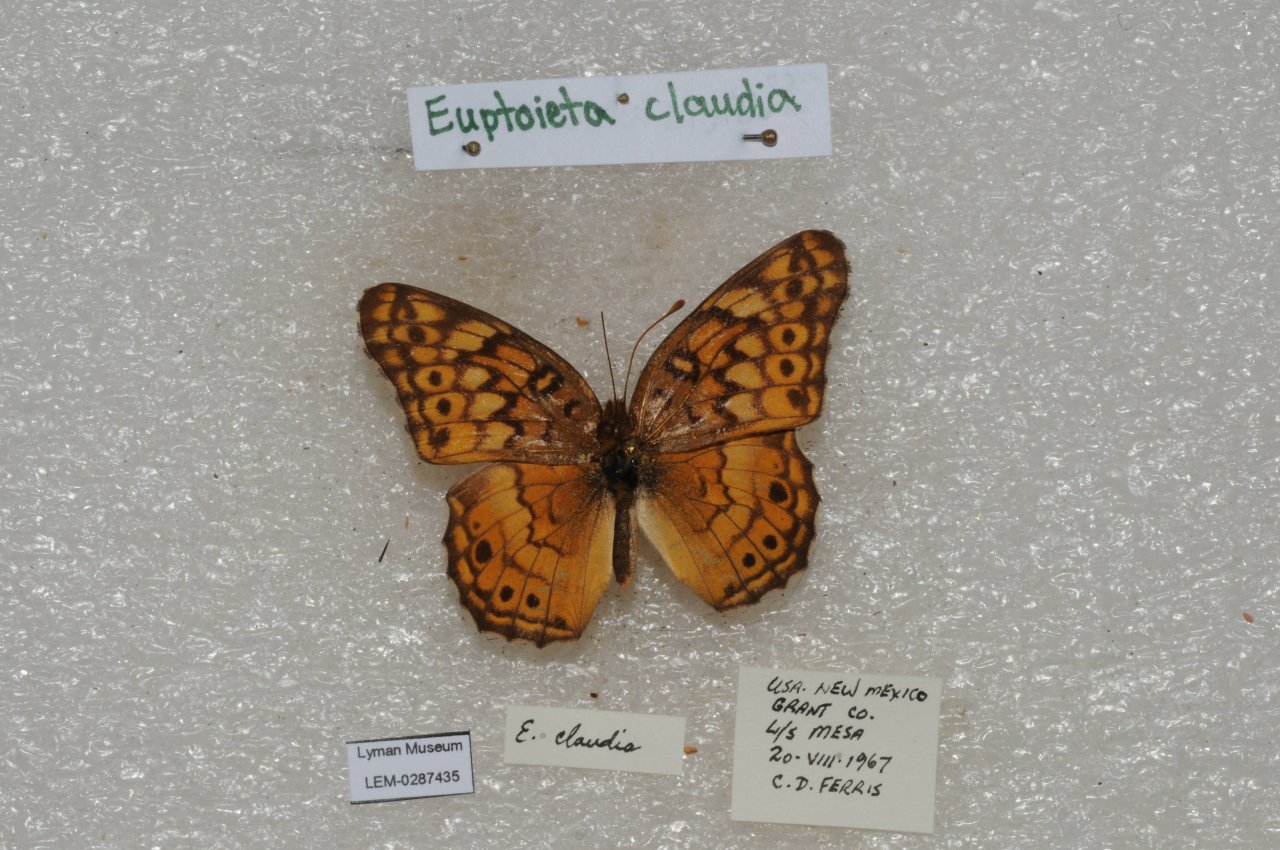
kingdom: Animalia
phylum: Arthropoda
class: Insecta
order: Lepidoptera
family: Nymphalidae
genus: Euptoieta
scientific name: Euptoieta claudia
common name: Variegated Fritillary
